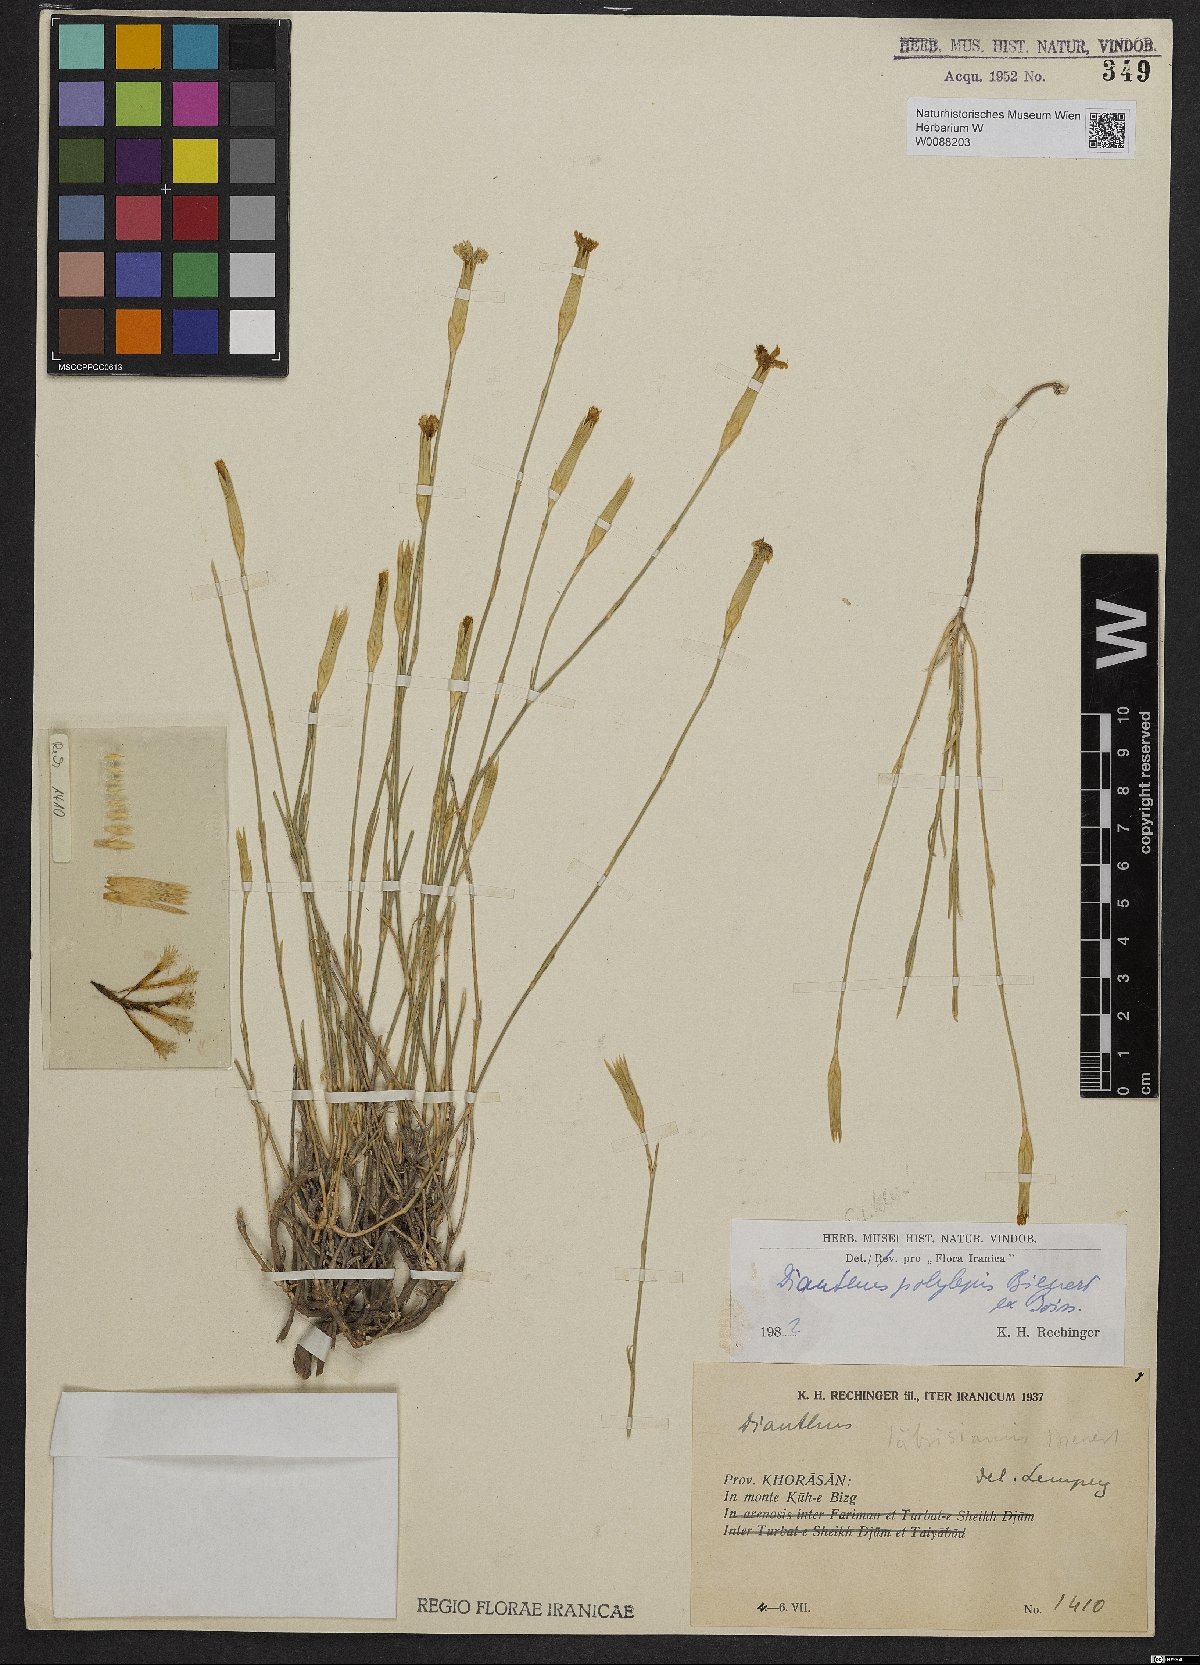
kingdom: Plantae
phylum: Tracheophyta
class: Magnoliopsida
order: Caryophyllales
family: Caryophyllaceae
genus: Dianthus
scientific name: Dianthus polylepis
